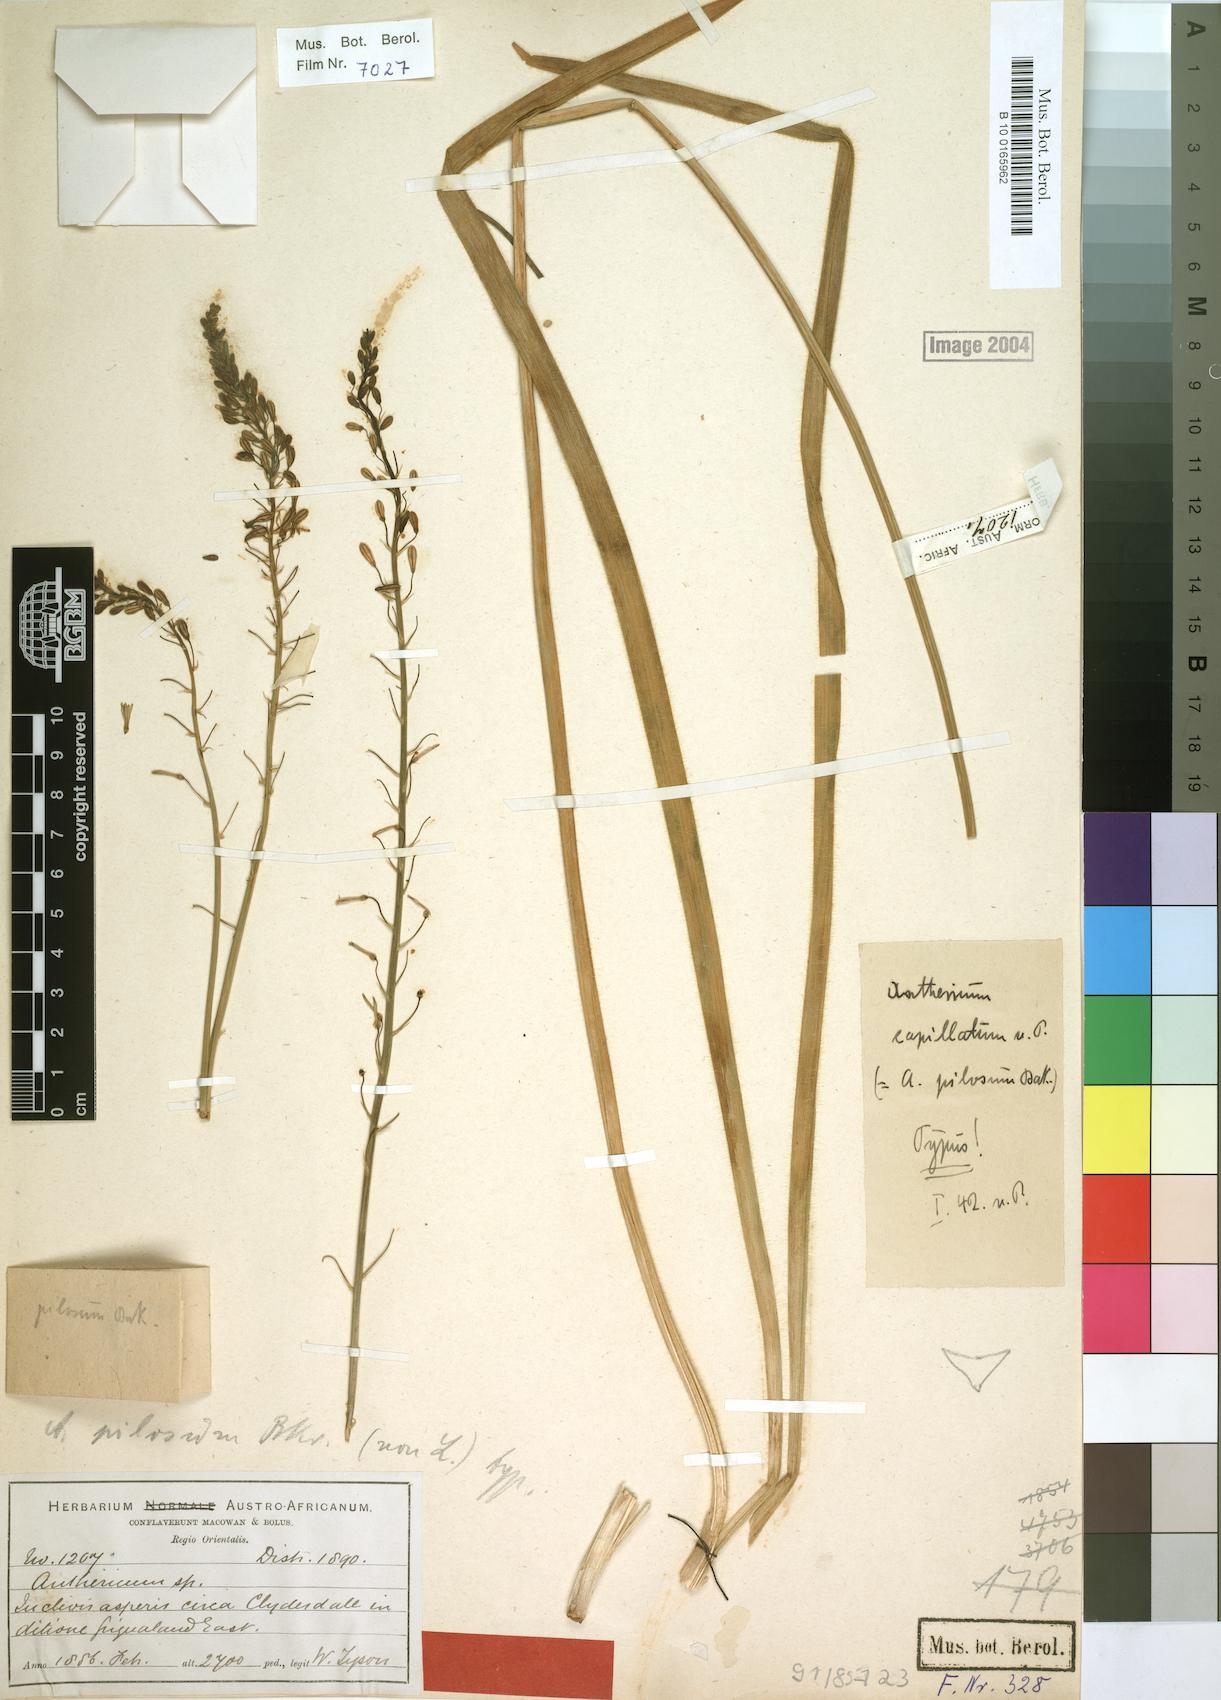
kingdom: Plantae
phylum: Tracheophyta
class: Liliopsida
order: Asparagales
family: Asphodelaceae
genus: Trachyandra
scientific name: Trachyandra capillata
